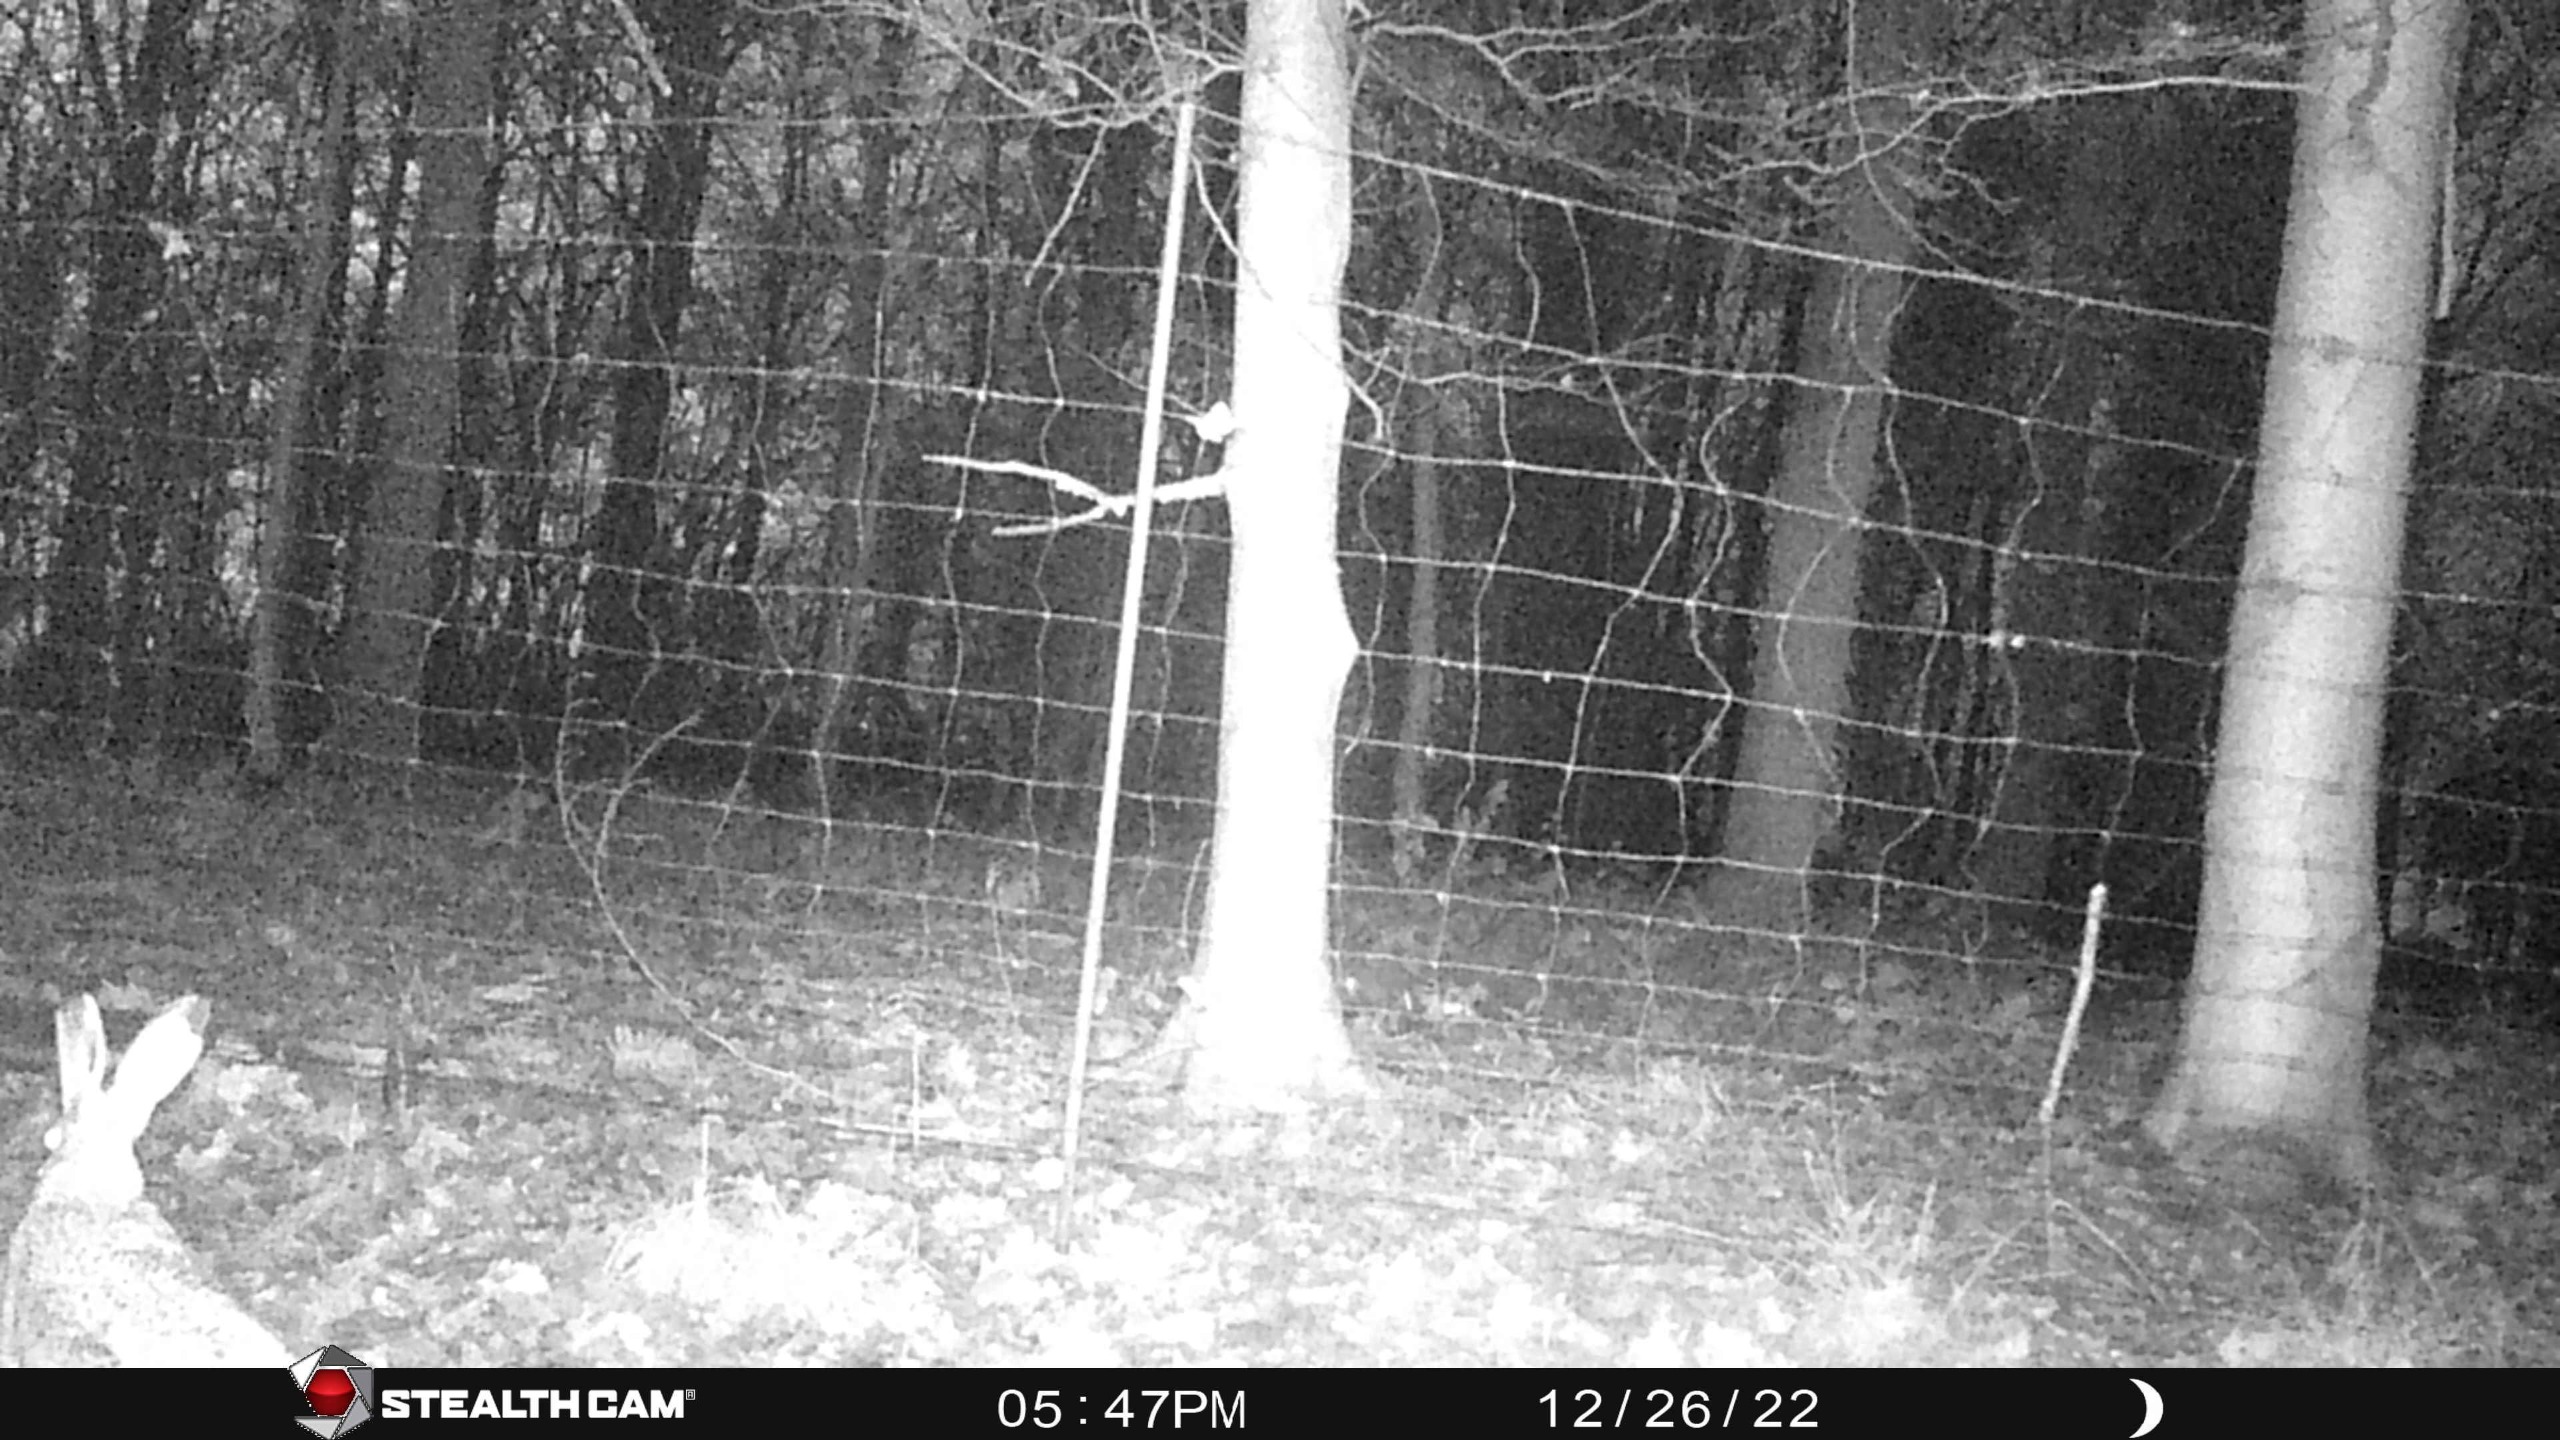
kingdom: Animalia
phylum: Chordata
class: Mammalia
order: Lagomorpha
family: Leporidae
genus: Lepus
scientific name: Lepus europaeus
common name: Hare
